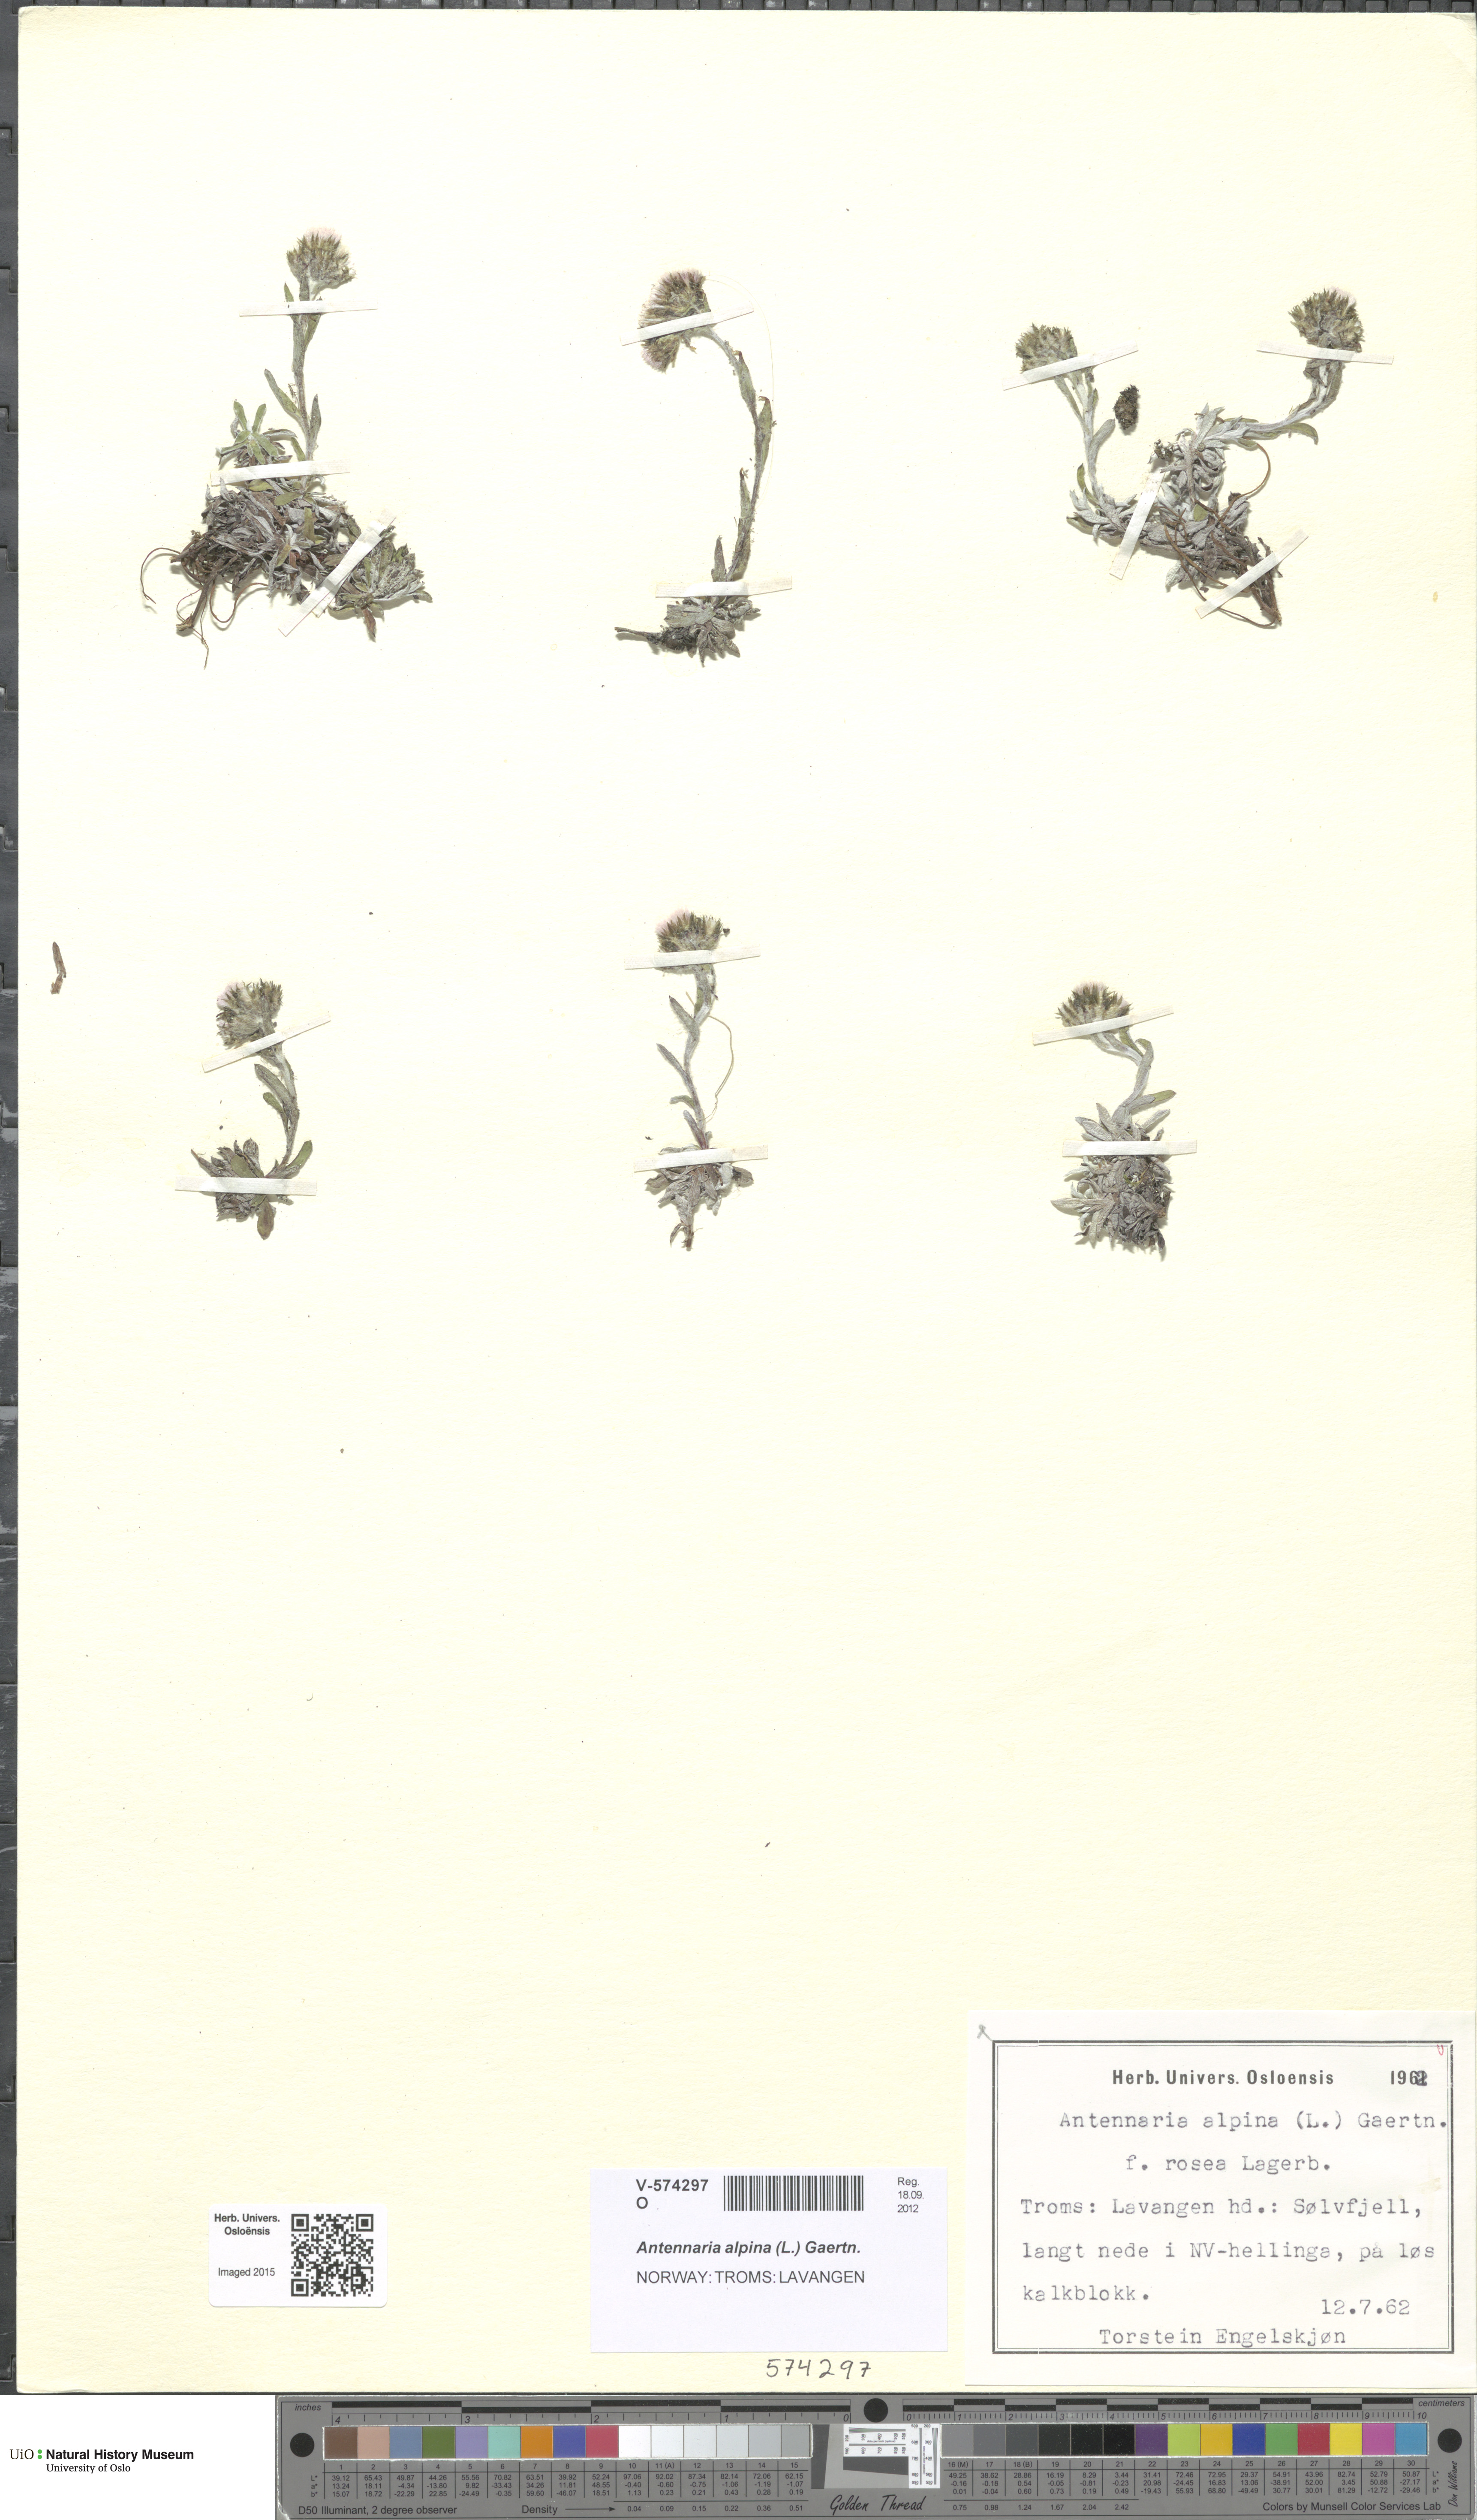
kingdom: Plantae
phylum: Tracheophyta
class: Magnoliopsida
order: Asterales
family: Asteraceae
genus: Antennaria
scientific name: Antennaria alpina
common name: Alpine pussytoes
